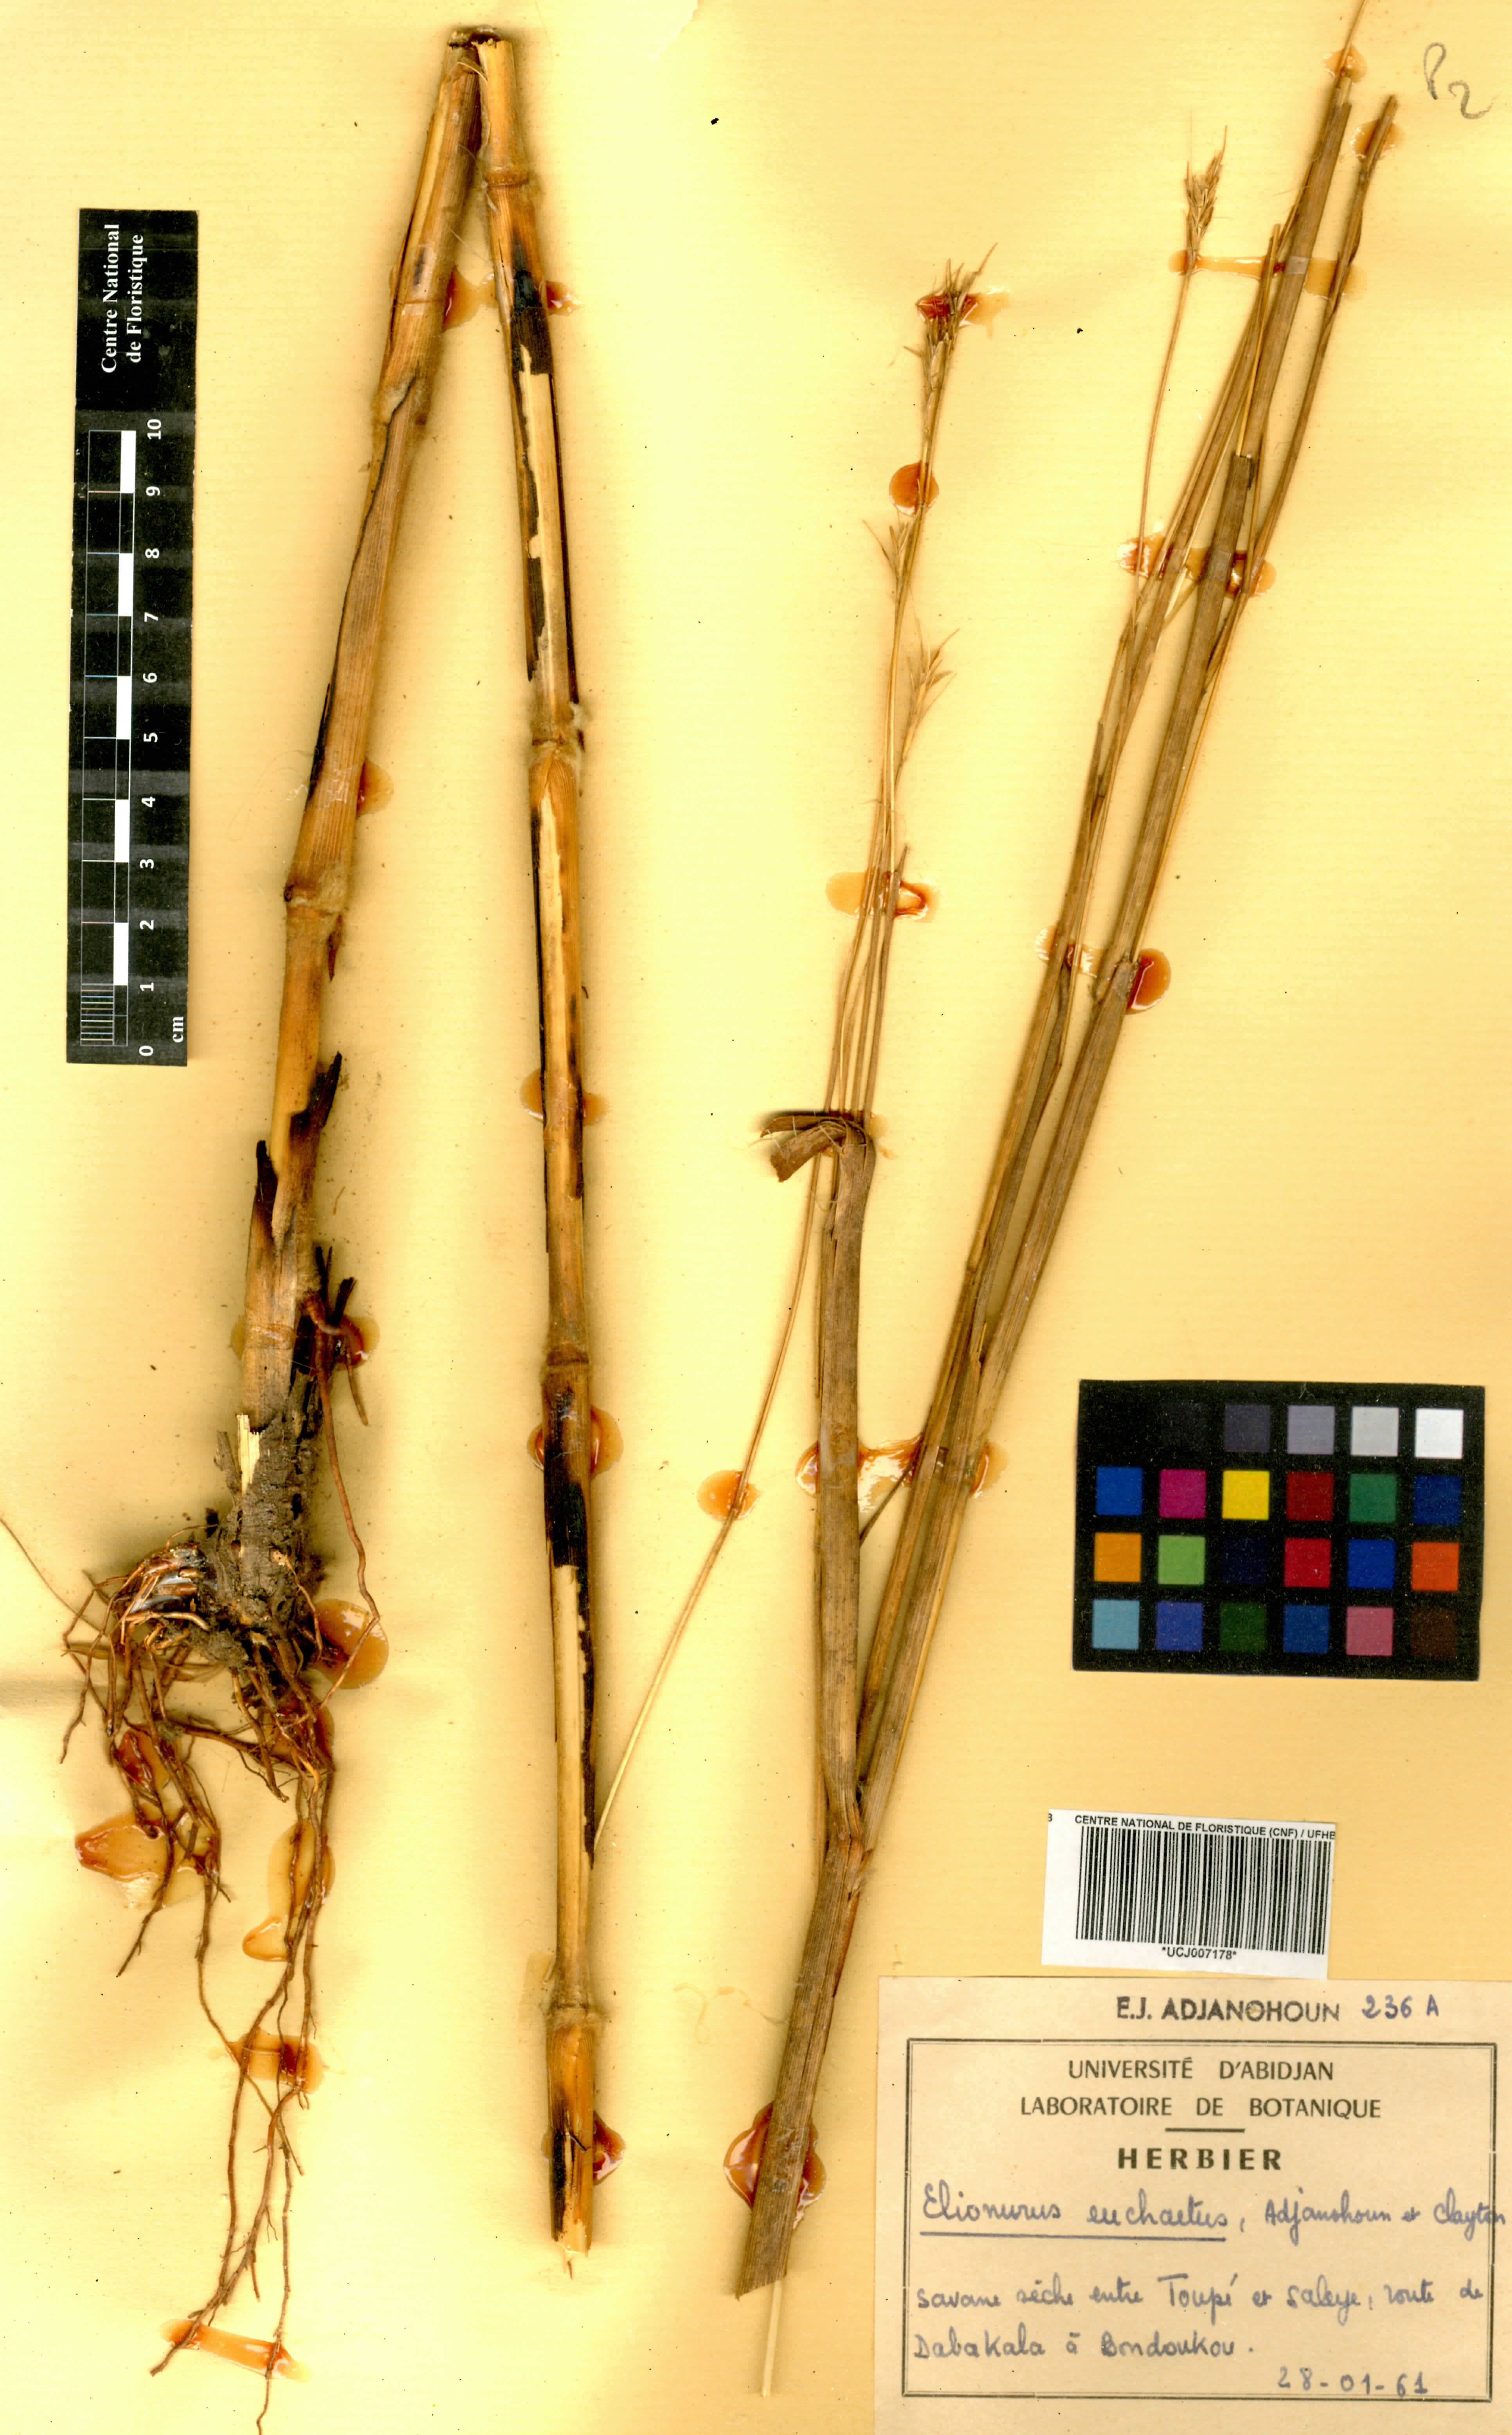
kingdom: Plantae
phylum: Tracheophyta
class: Liliopsida
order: Poales
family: Poaceae
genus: Elionurus
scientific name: Elionurus euchaetus
